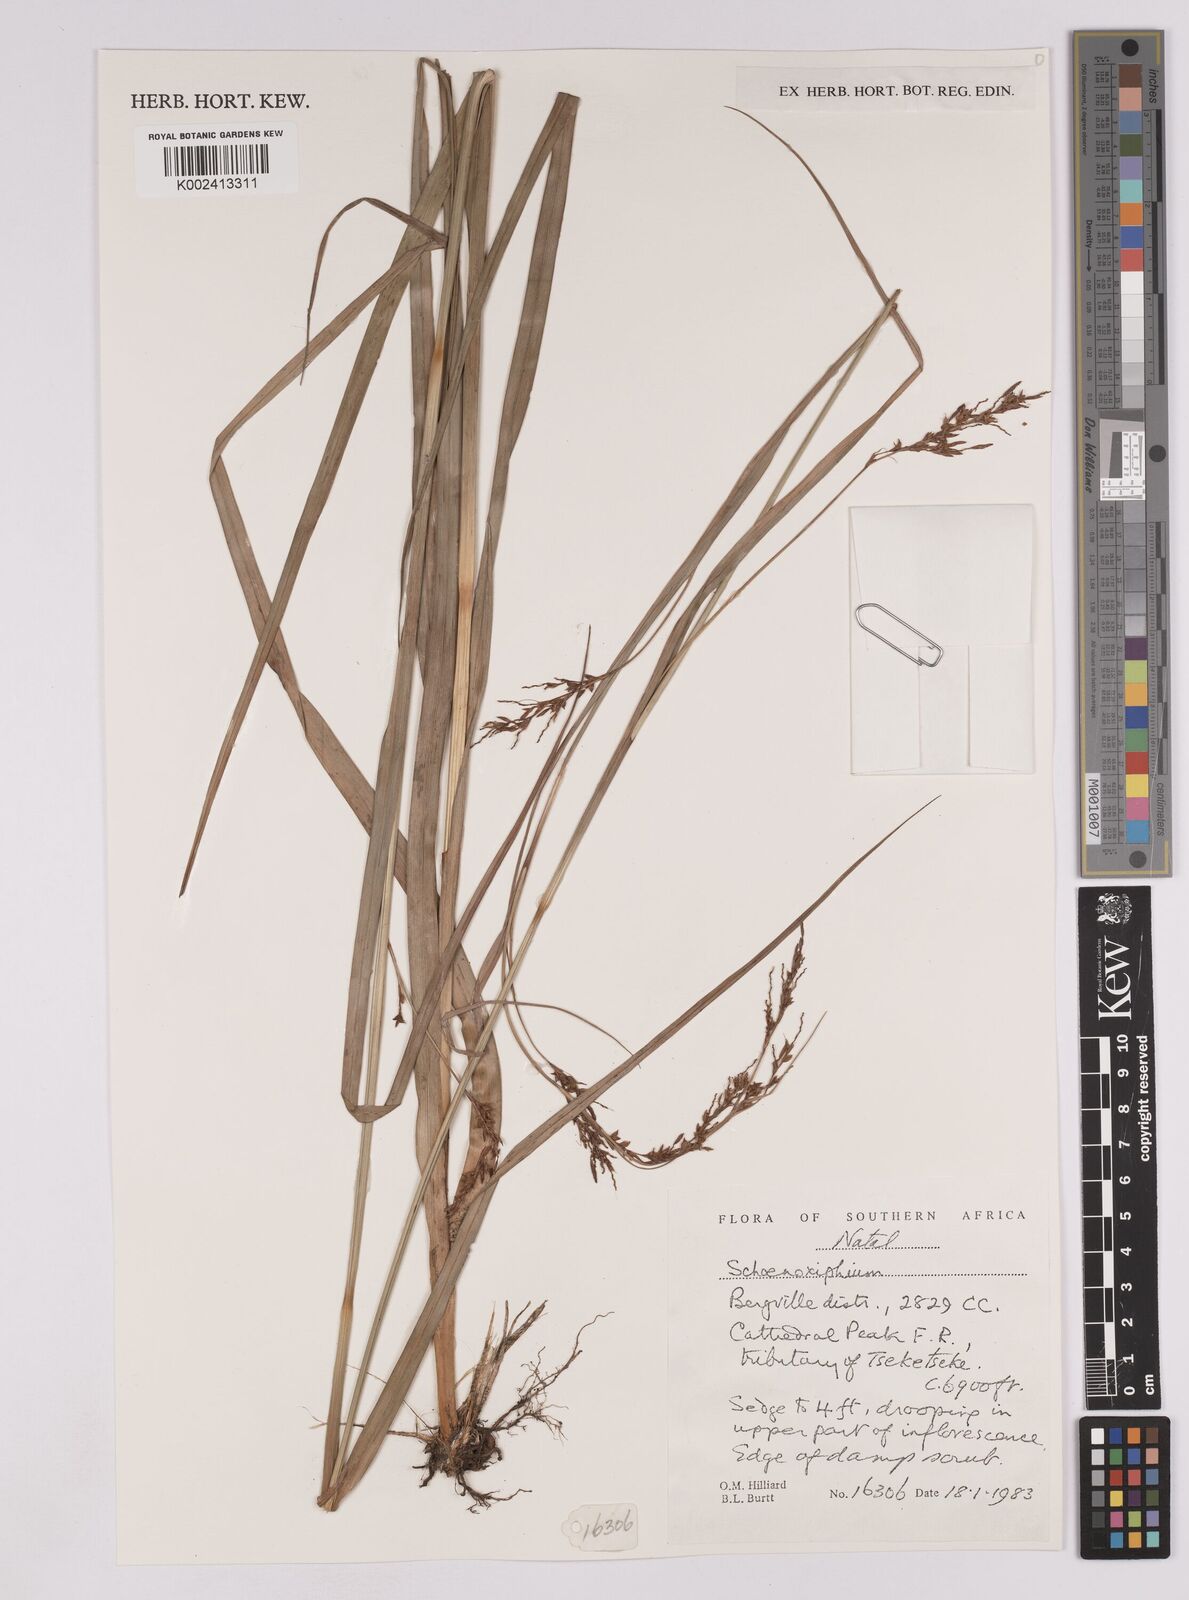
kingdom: Plantae
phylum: Tracheophyta
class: Liliopsida
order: Poales
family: Cyperaceae
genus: Carex
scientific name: Carex
